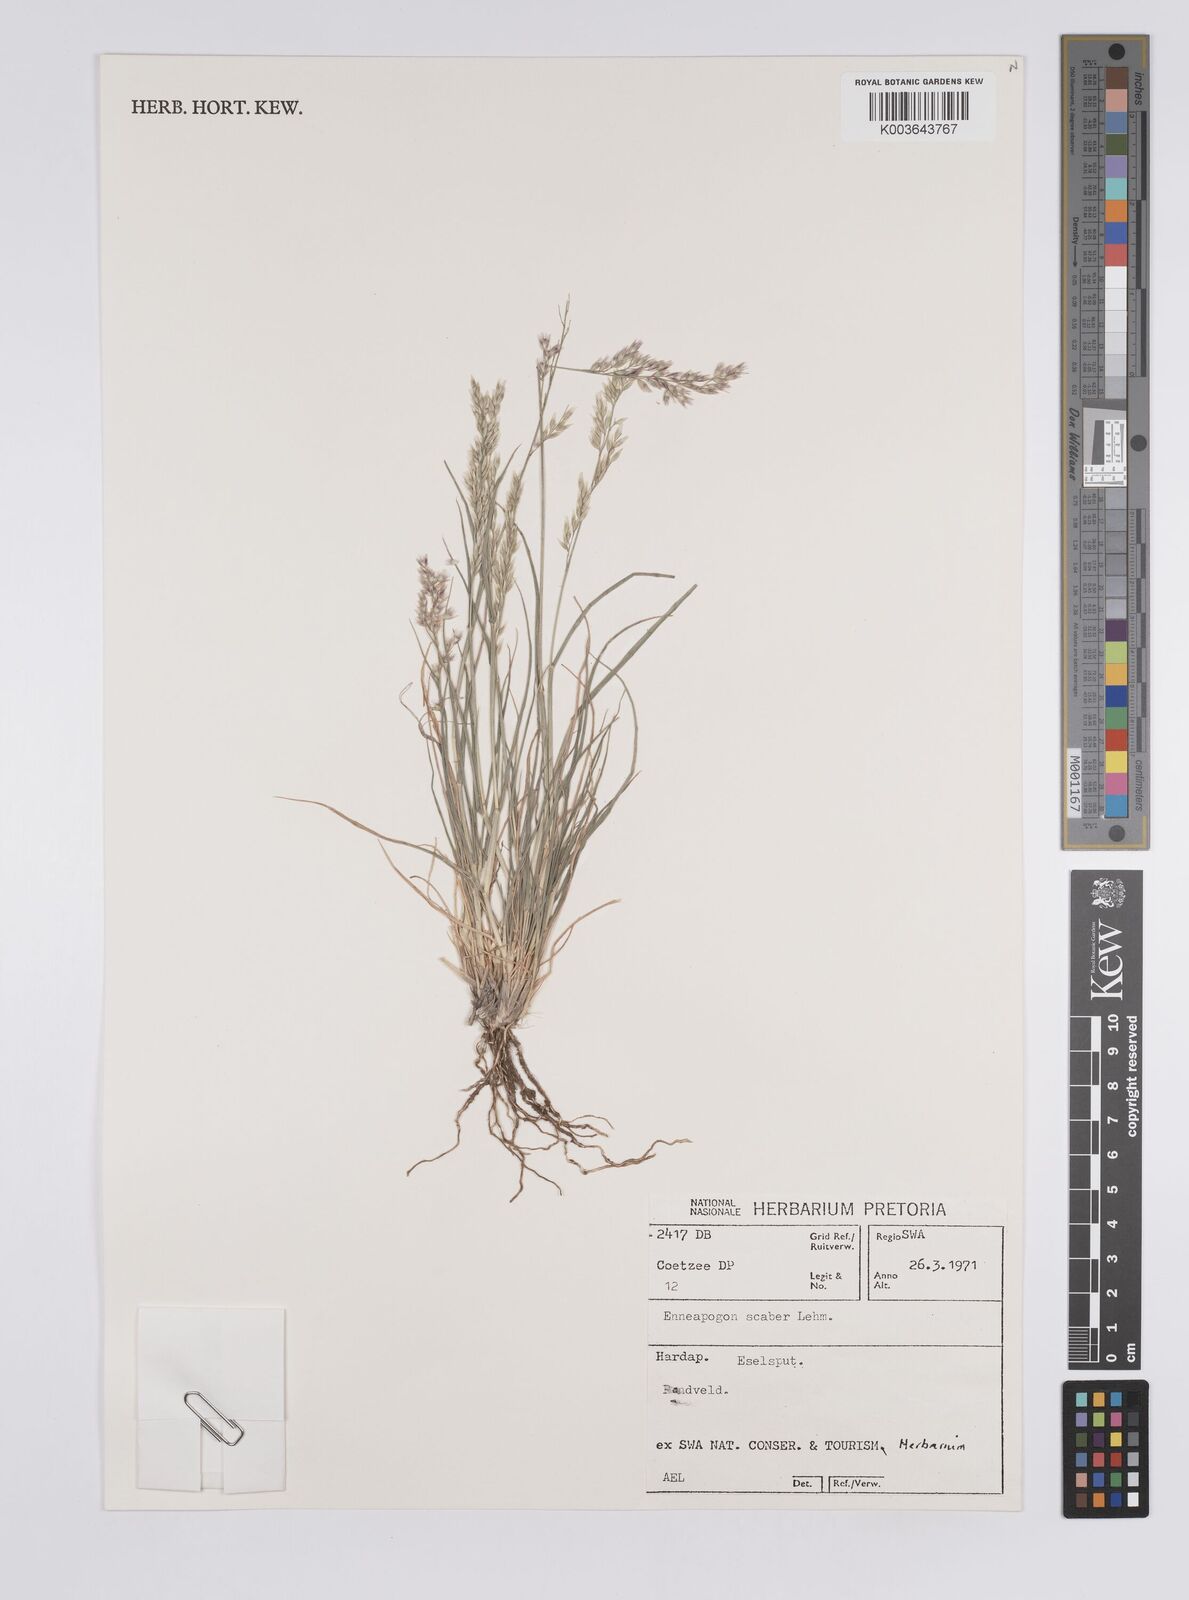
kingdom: Plantae
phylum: Tracheophyta
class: Liliopsida
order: Poales
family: Poaceae
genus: Enneapogon
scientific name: Enneapogon scaber
